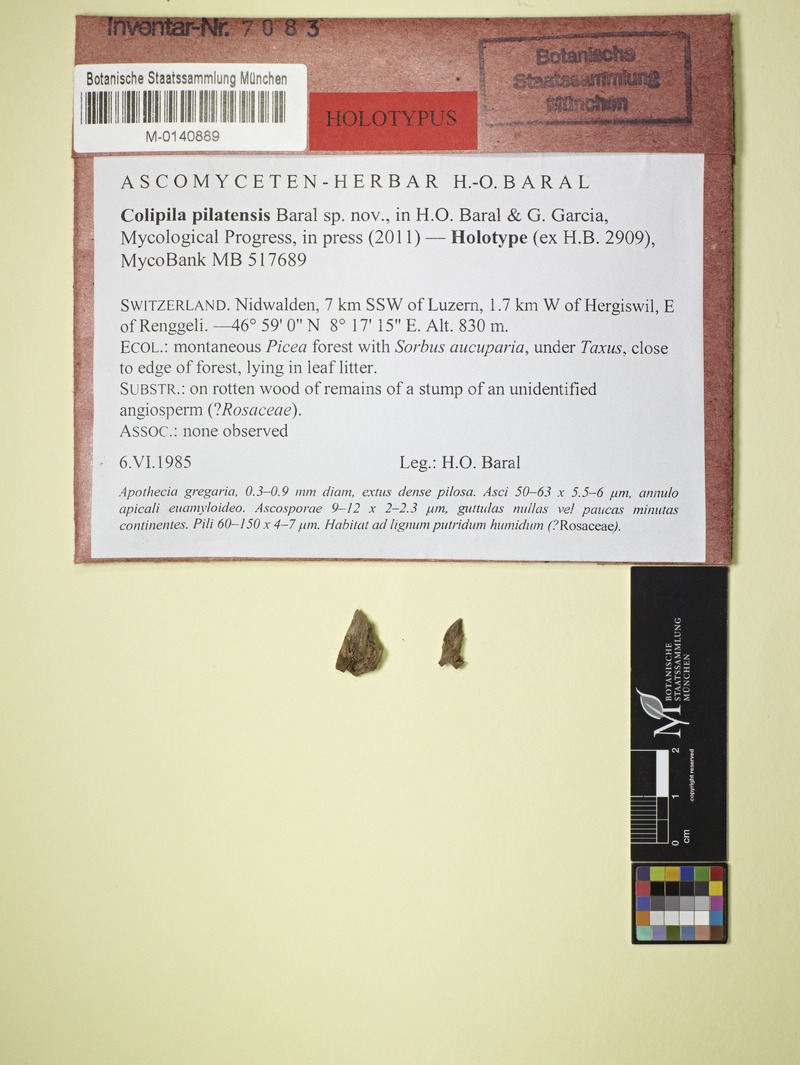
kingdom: Fungi
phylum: Ascomycota
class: Leotiomycetes
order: Helotiales
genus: Colipila
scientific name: Colipila pilatensis
